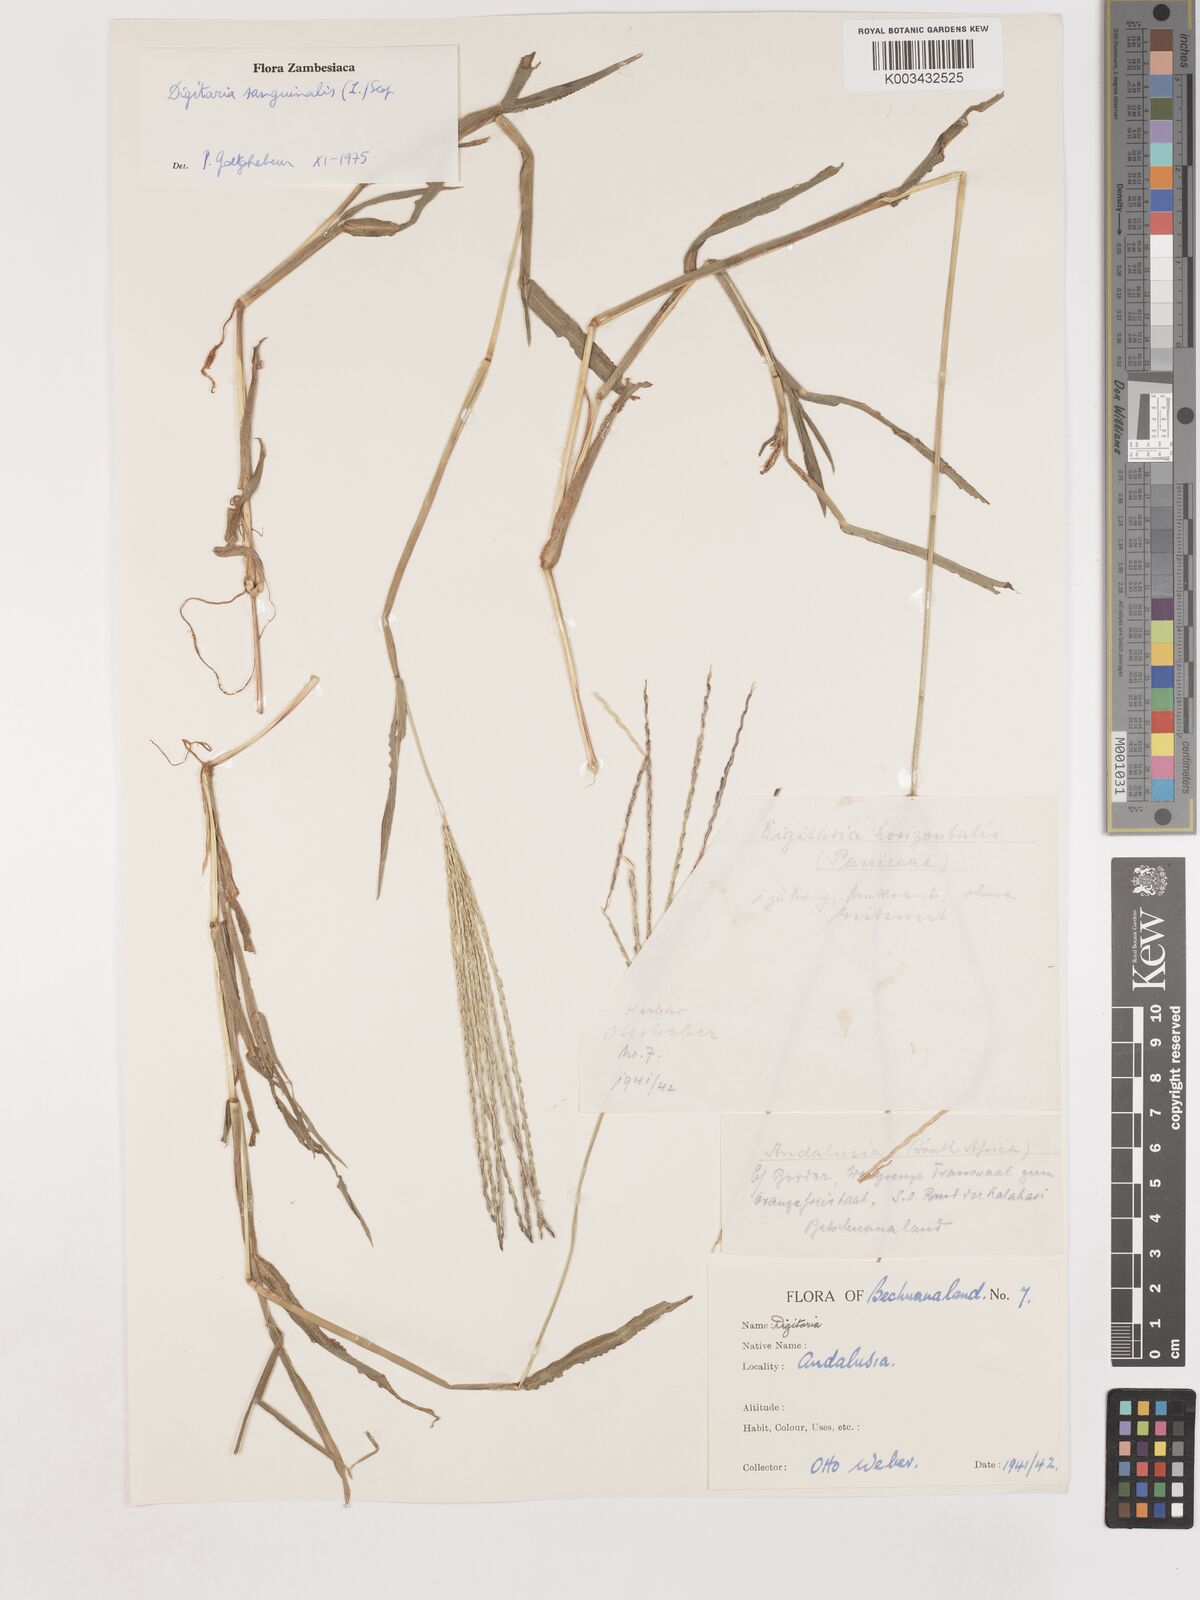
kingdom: Plantae
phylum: Tracheophyta
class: Liliopsida
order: Poales
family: Poaceae
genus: Digitaria
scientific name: Digitaria sanguinalis
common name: Hairy crabgrass
